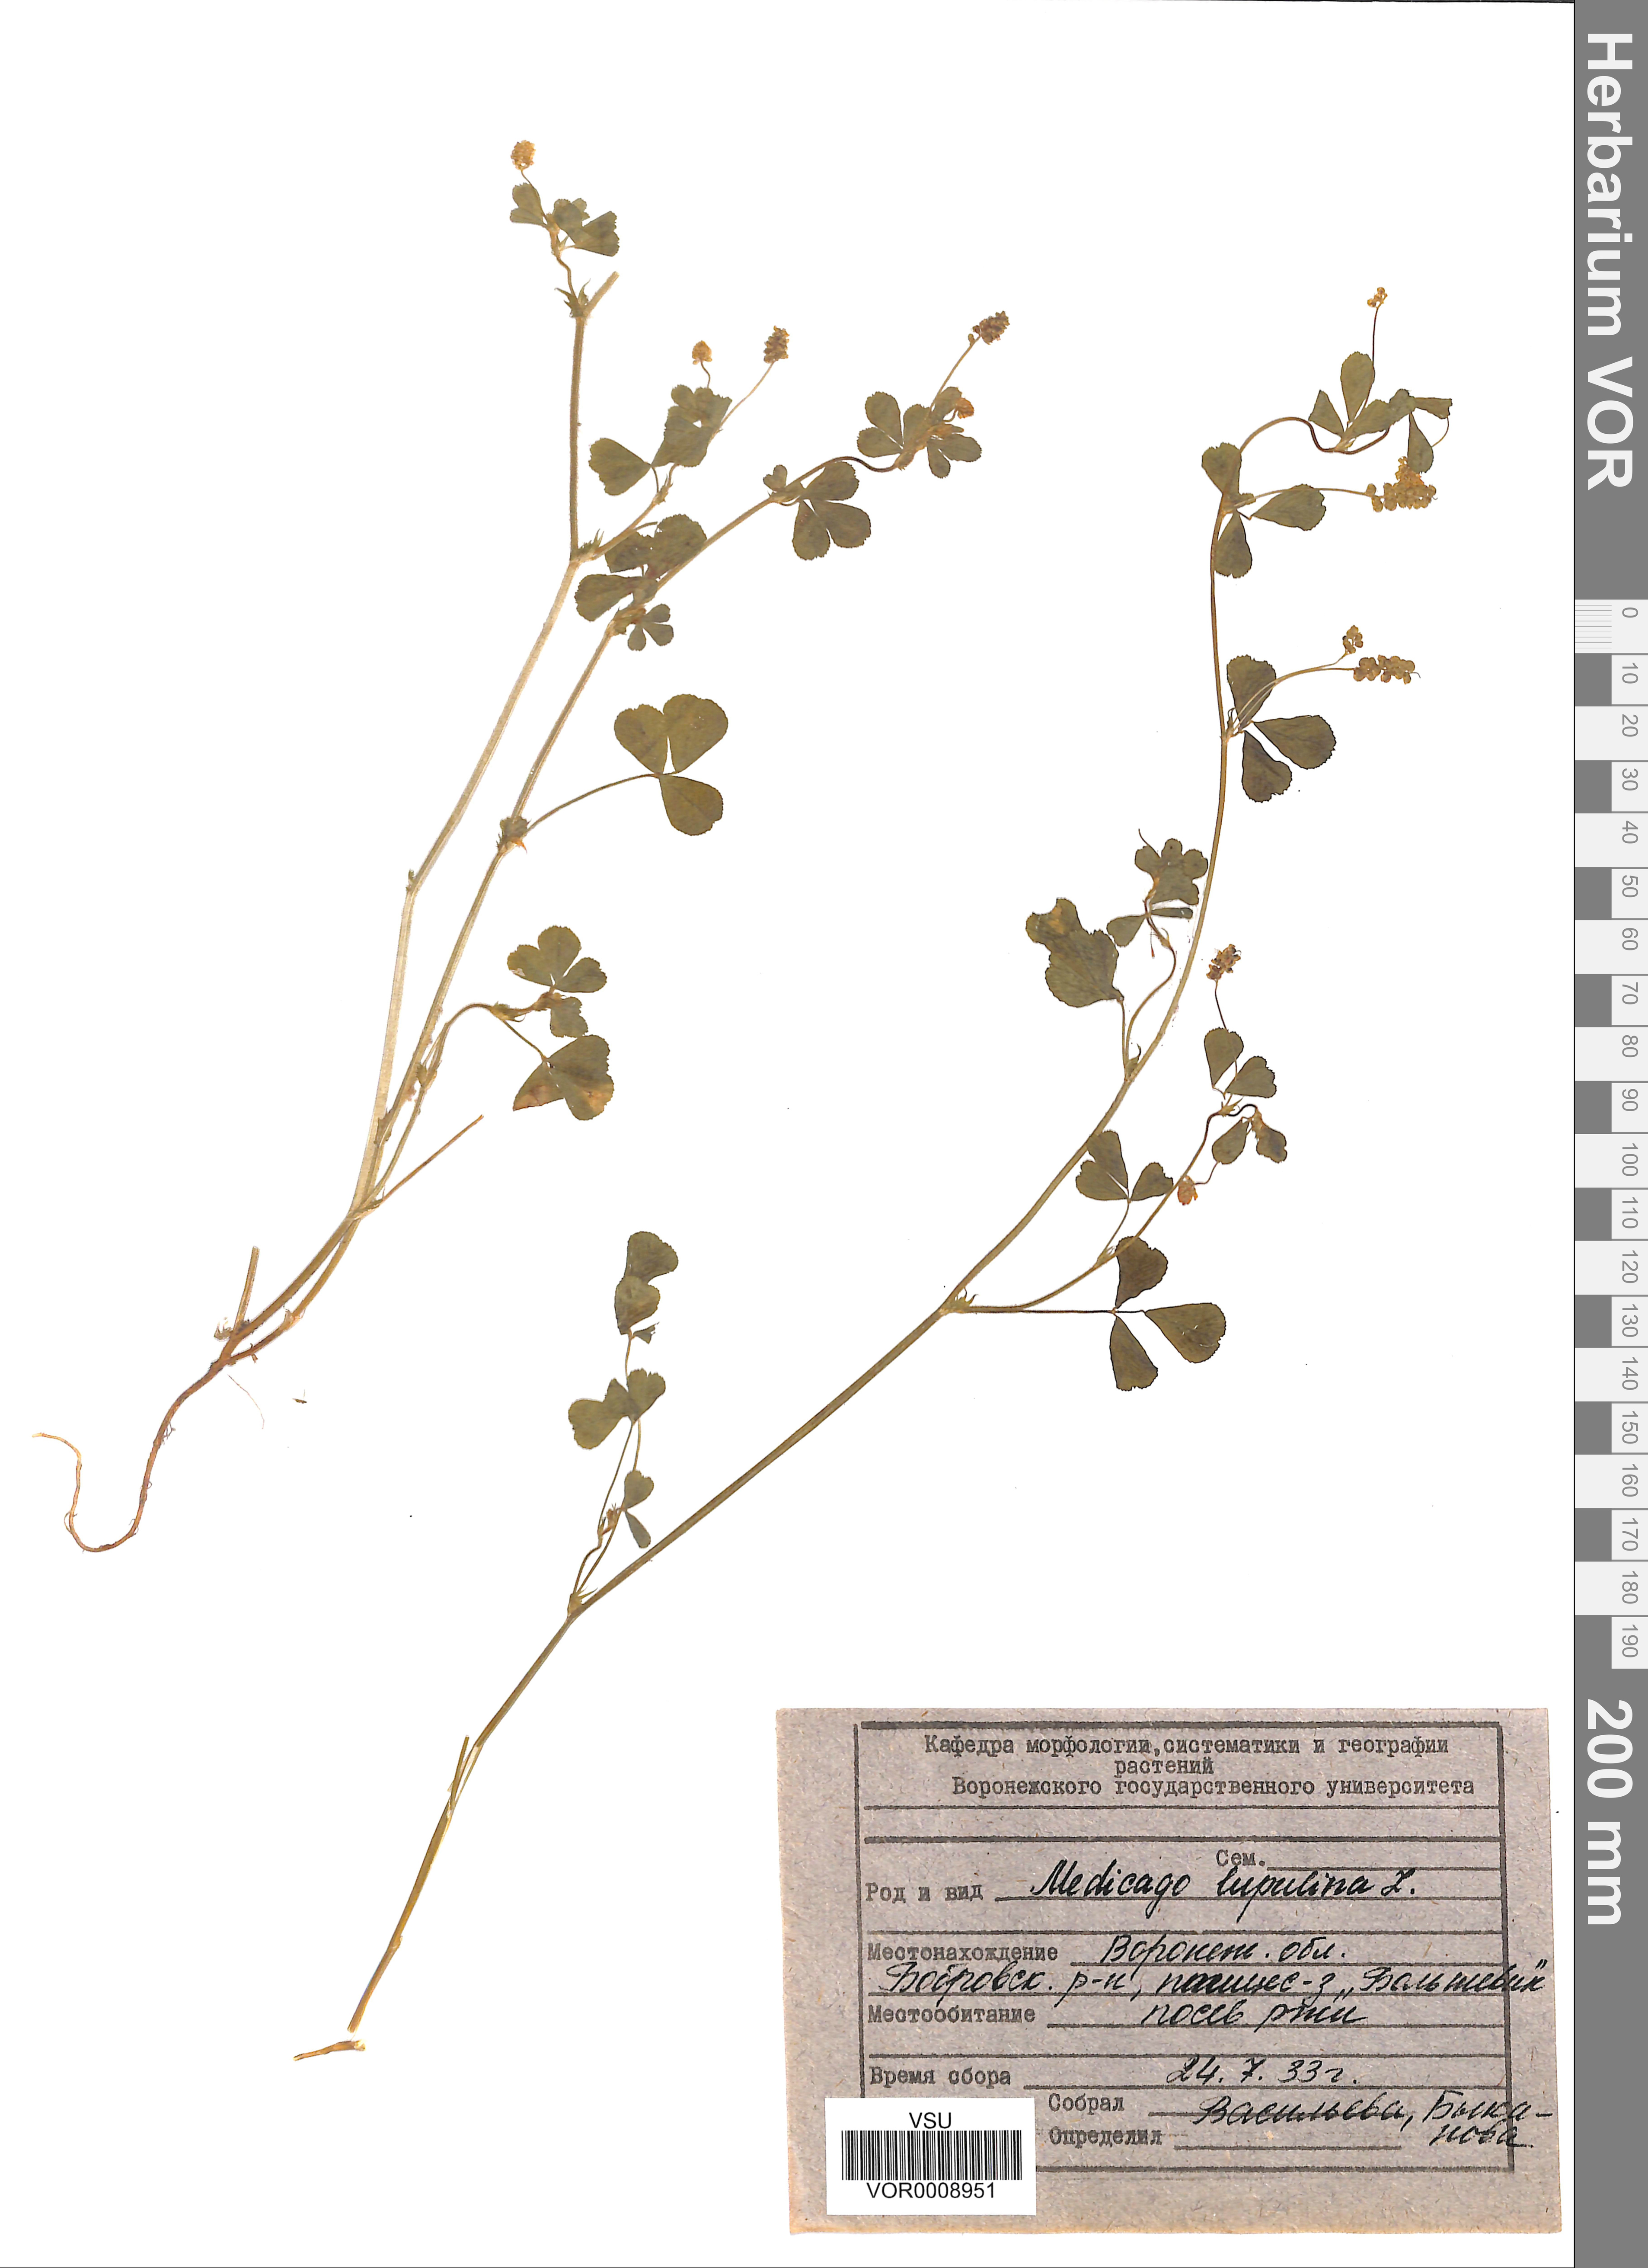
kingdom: Plantae
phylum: Tracheophyta
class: Magnoliopsida
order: Fabales
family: Fabaceae
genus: Medicago
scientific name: Medicago lupulina
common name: Black medick
